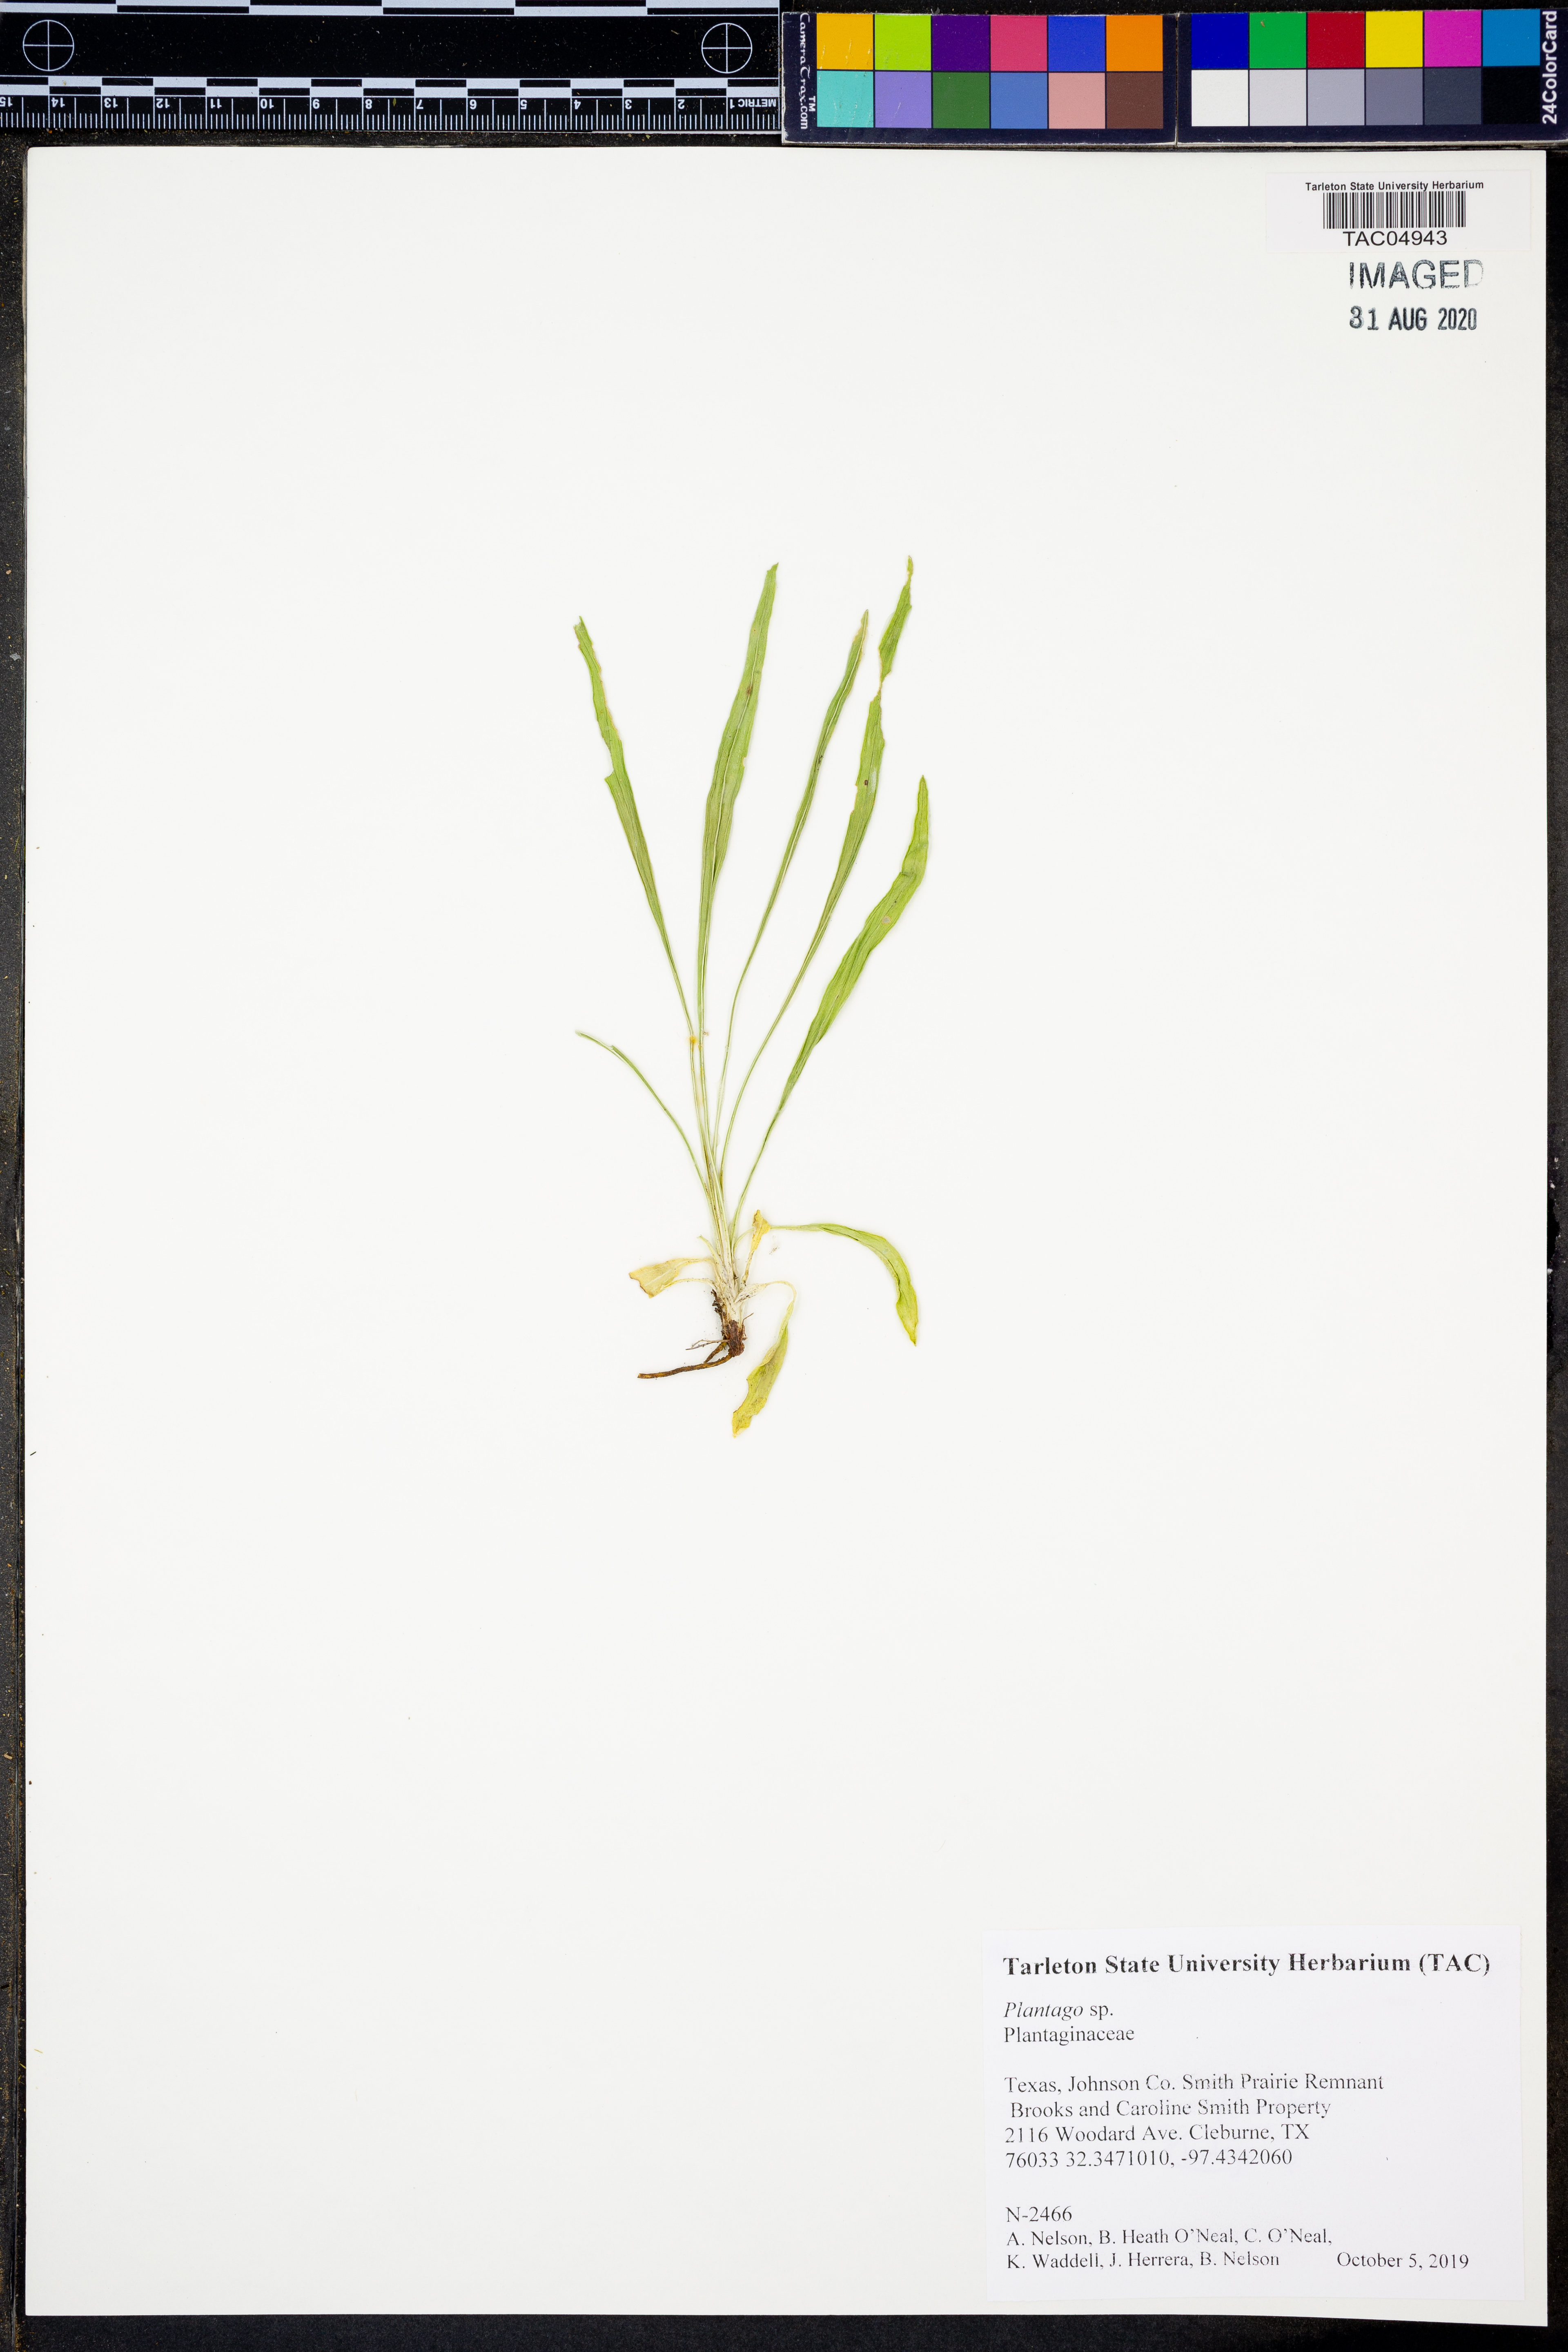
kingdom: Plantae
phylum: Tracheophyta
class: Magnoliopsida
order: Lamiales
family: Plantaginaceae
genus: Plantago
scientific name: Plantago
